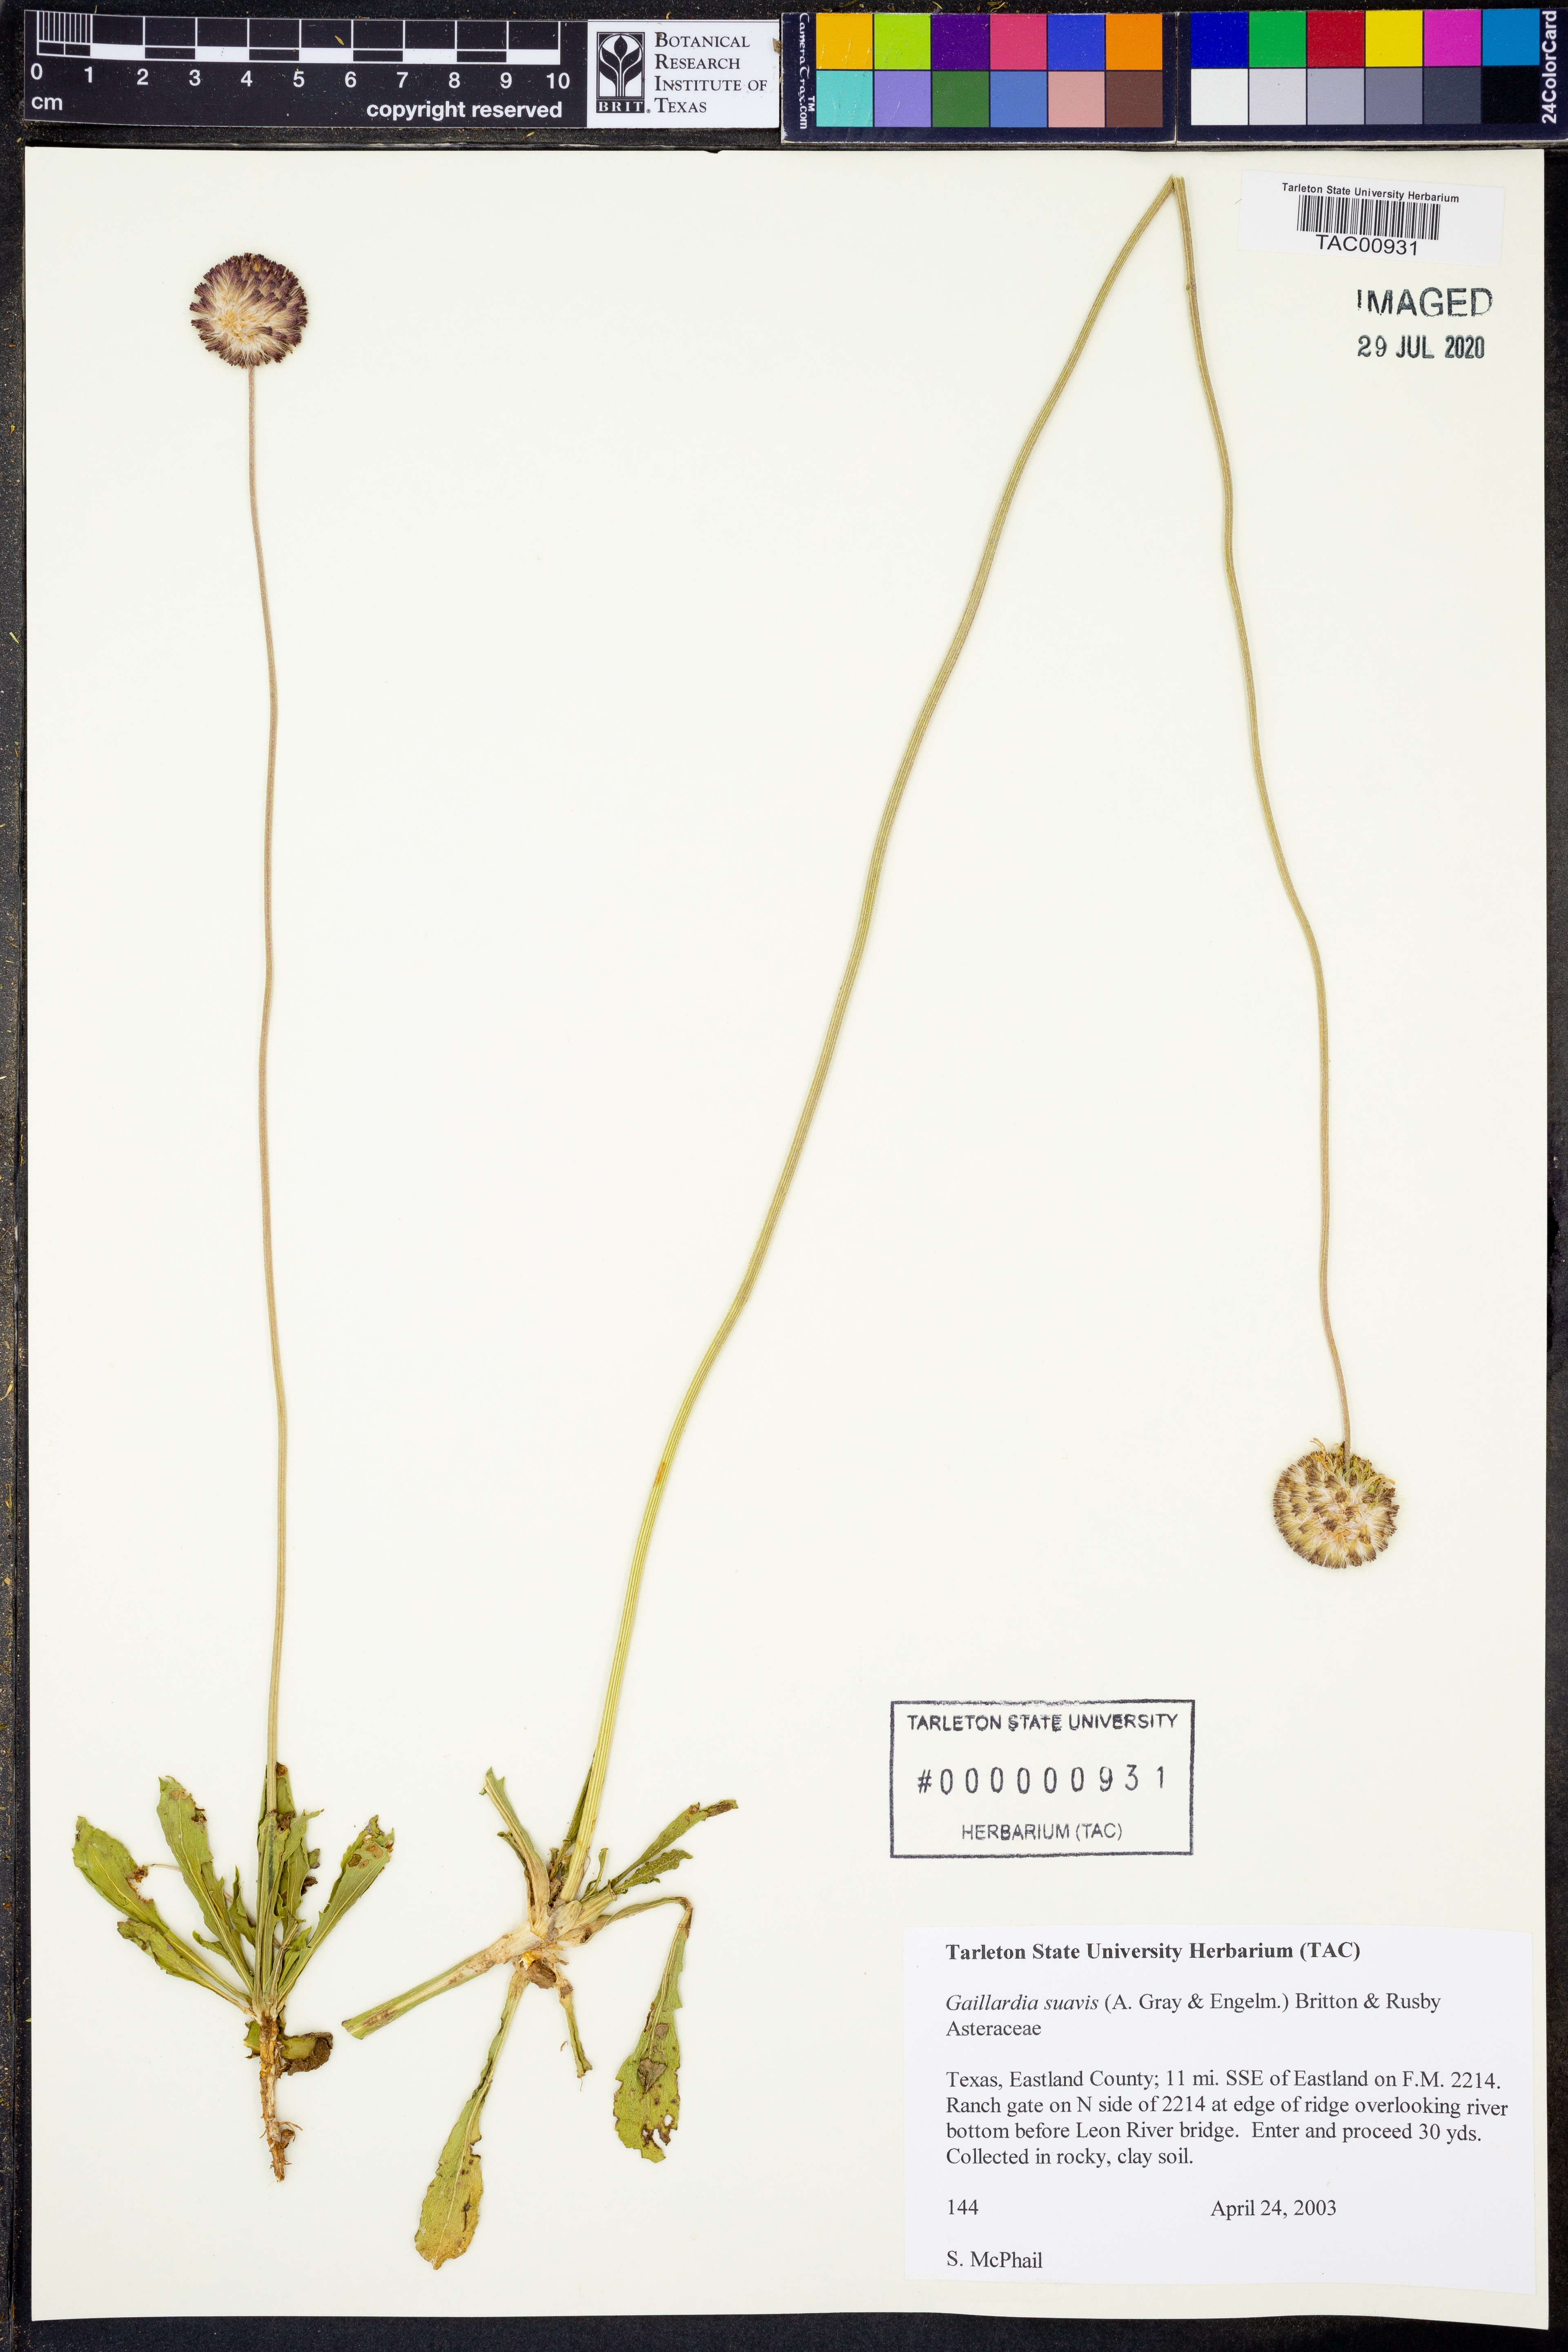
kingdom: Plantae
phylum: Tracheophyta
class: Magnoliopsida
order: Asterales
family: Asteraceae
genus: Gaillardia
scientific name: Gaillardia suavis
